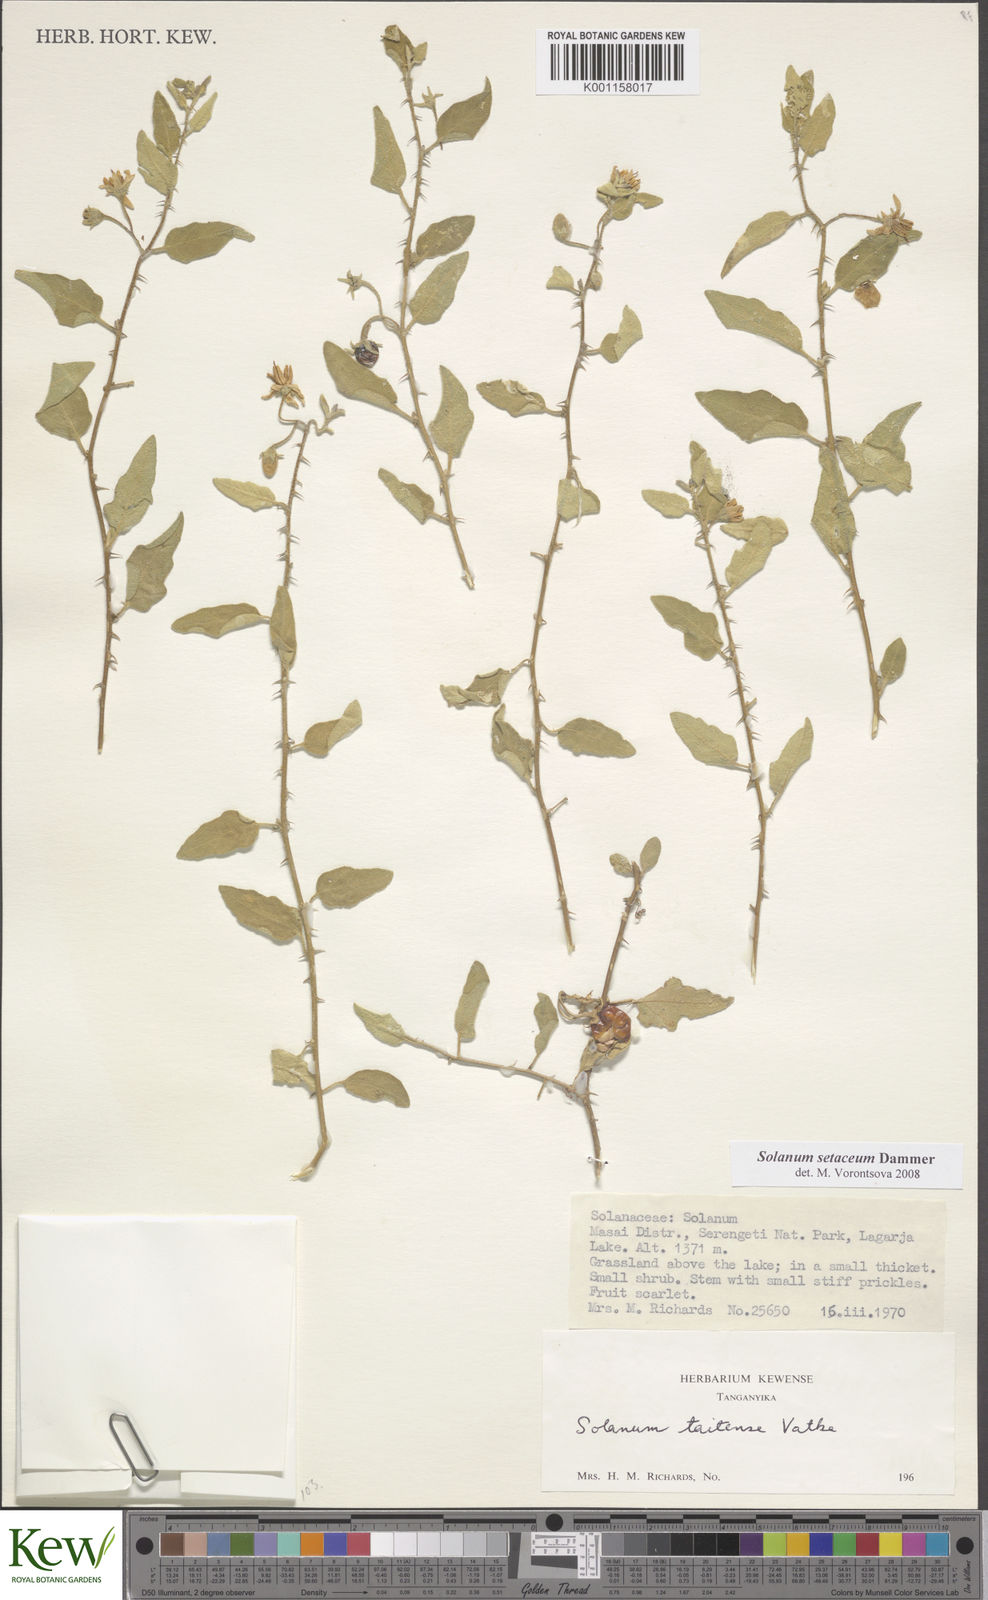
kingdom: Plantae
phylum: Tracheophyta
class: Magnoliopsida
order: Solanales
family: Solanaceae
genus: Solanum
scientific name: Solanum setaceum
